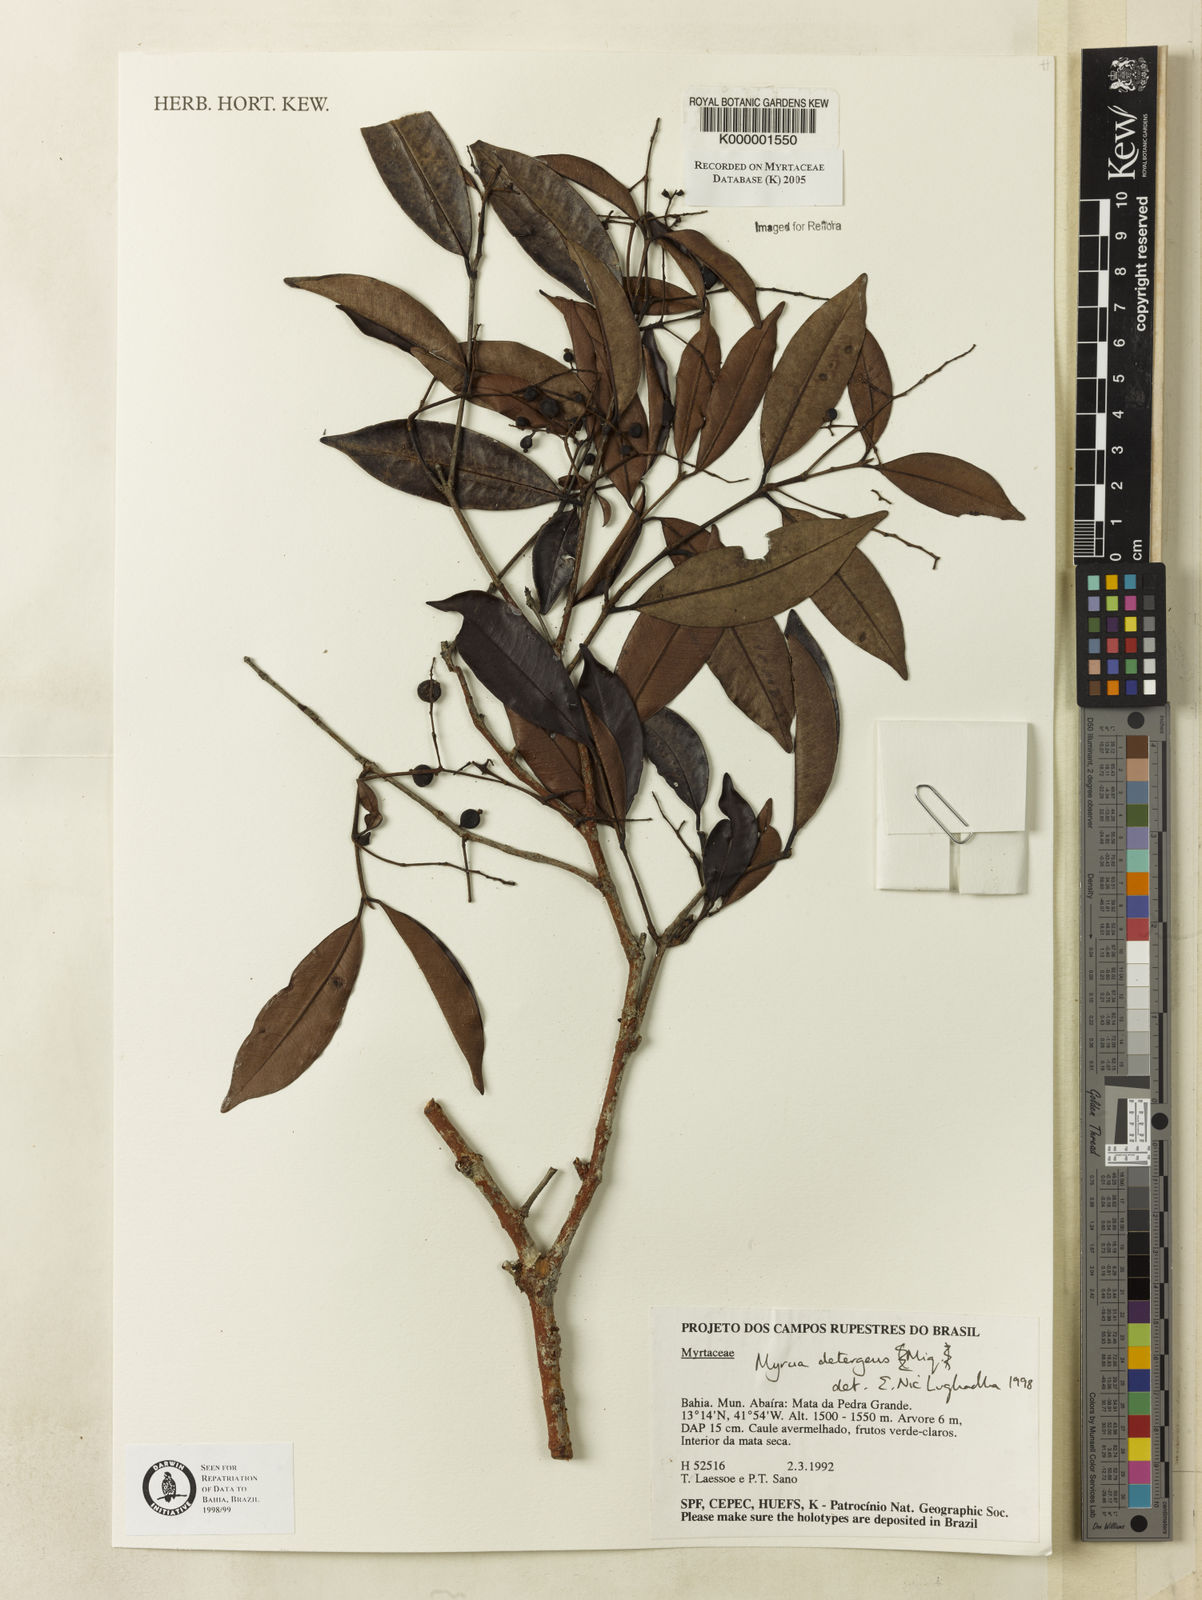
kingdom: Plantae
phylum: Tracheophyta
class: Magnoliopsida
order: Myrtales
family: Myrtaceae
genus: Myrcia
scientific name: Myrcia amazonica
